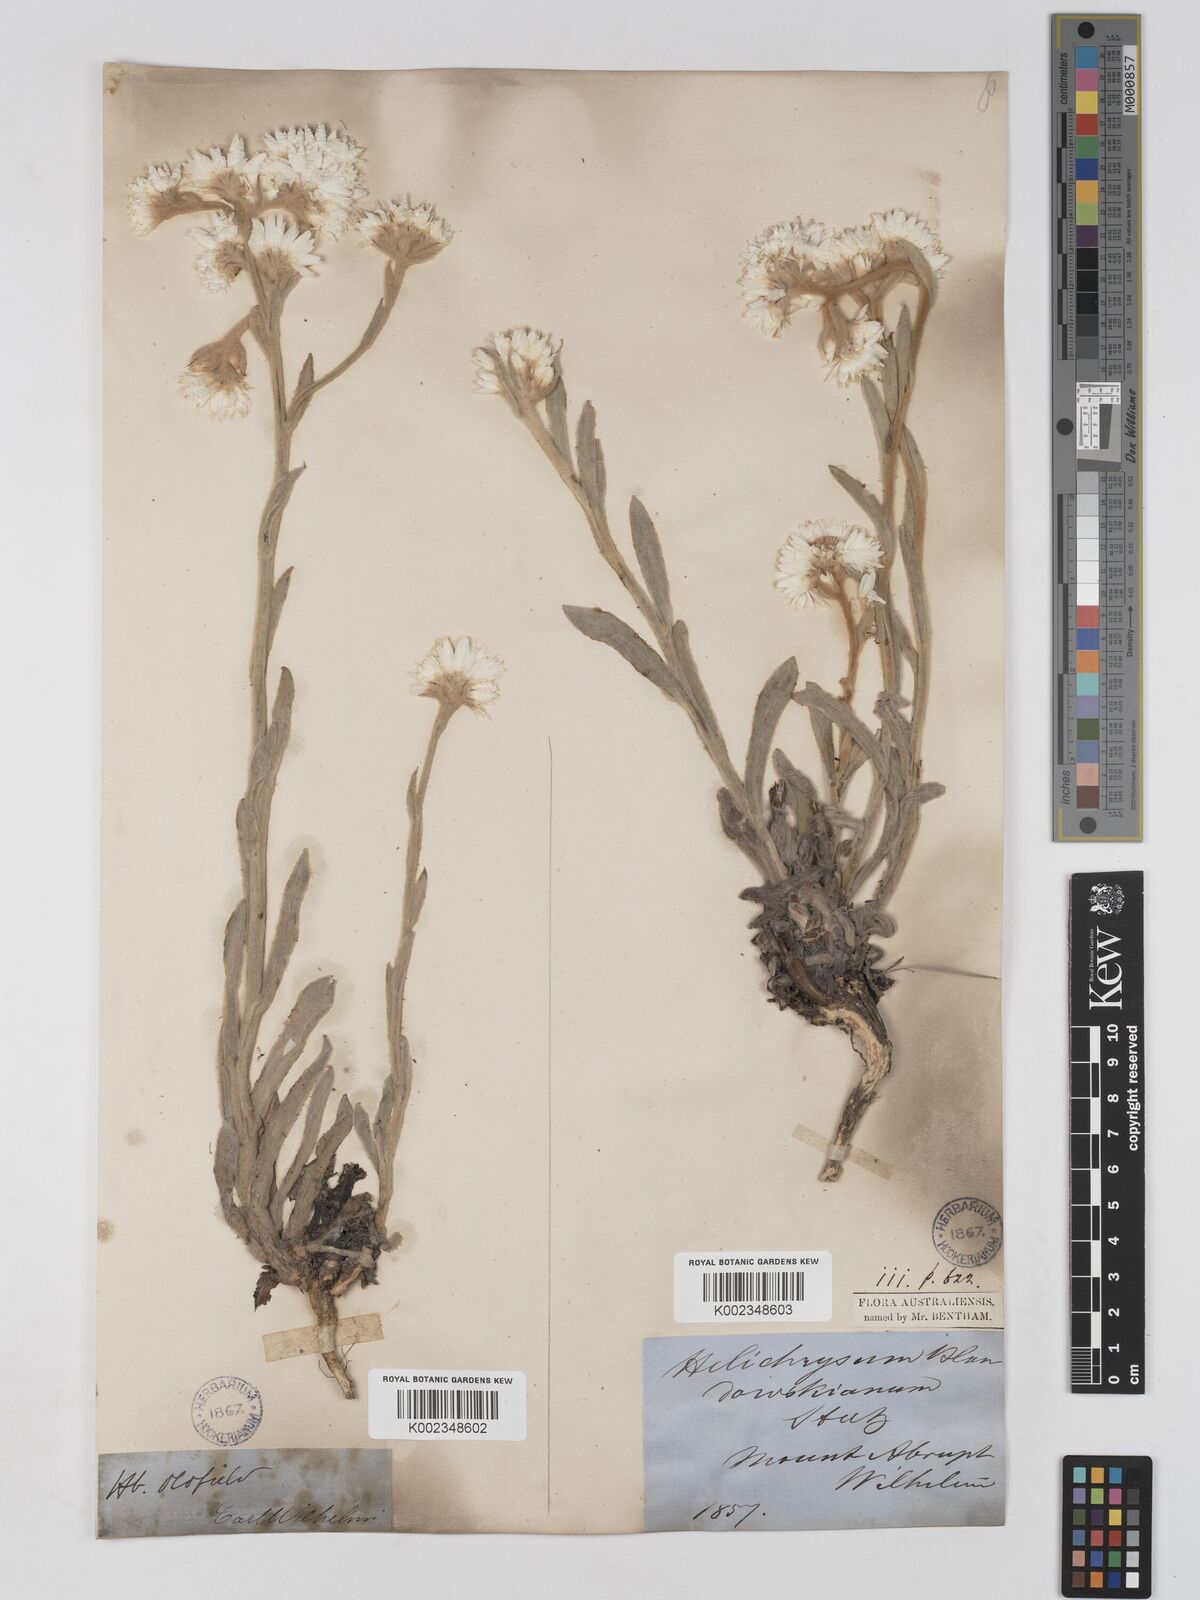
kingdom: Plantae
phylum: Tracheophyta
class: Magnoliopsida
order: Asterales
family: Asteraceae
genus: Argentipallium
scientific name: Argentipallium blandowskianum
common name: Woolly everlasting
